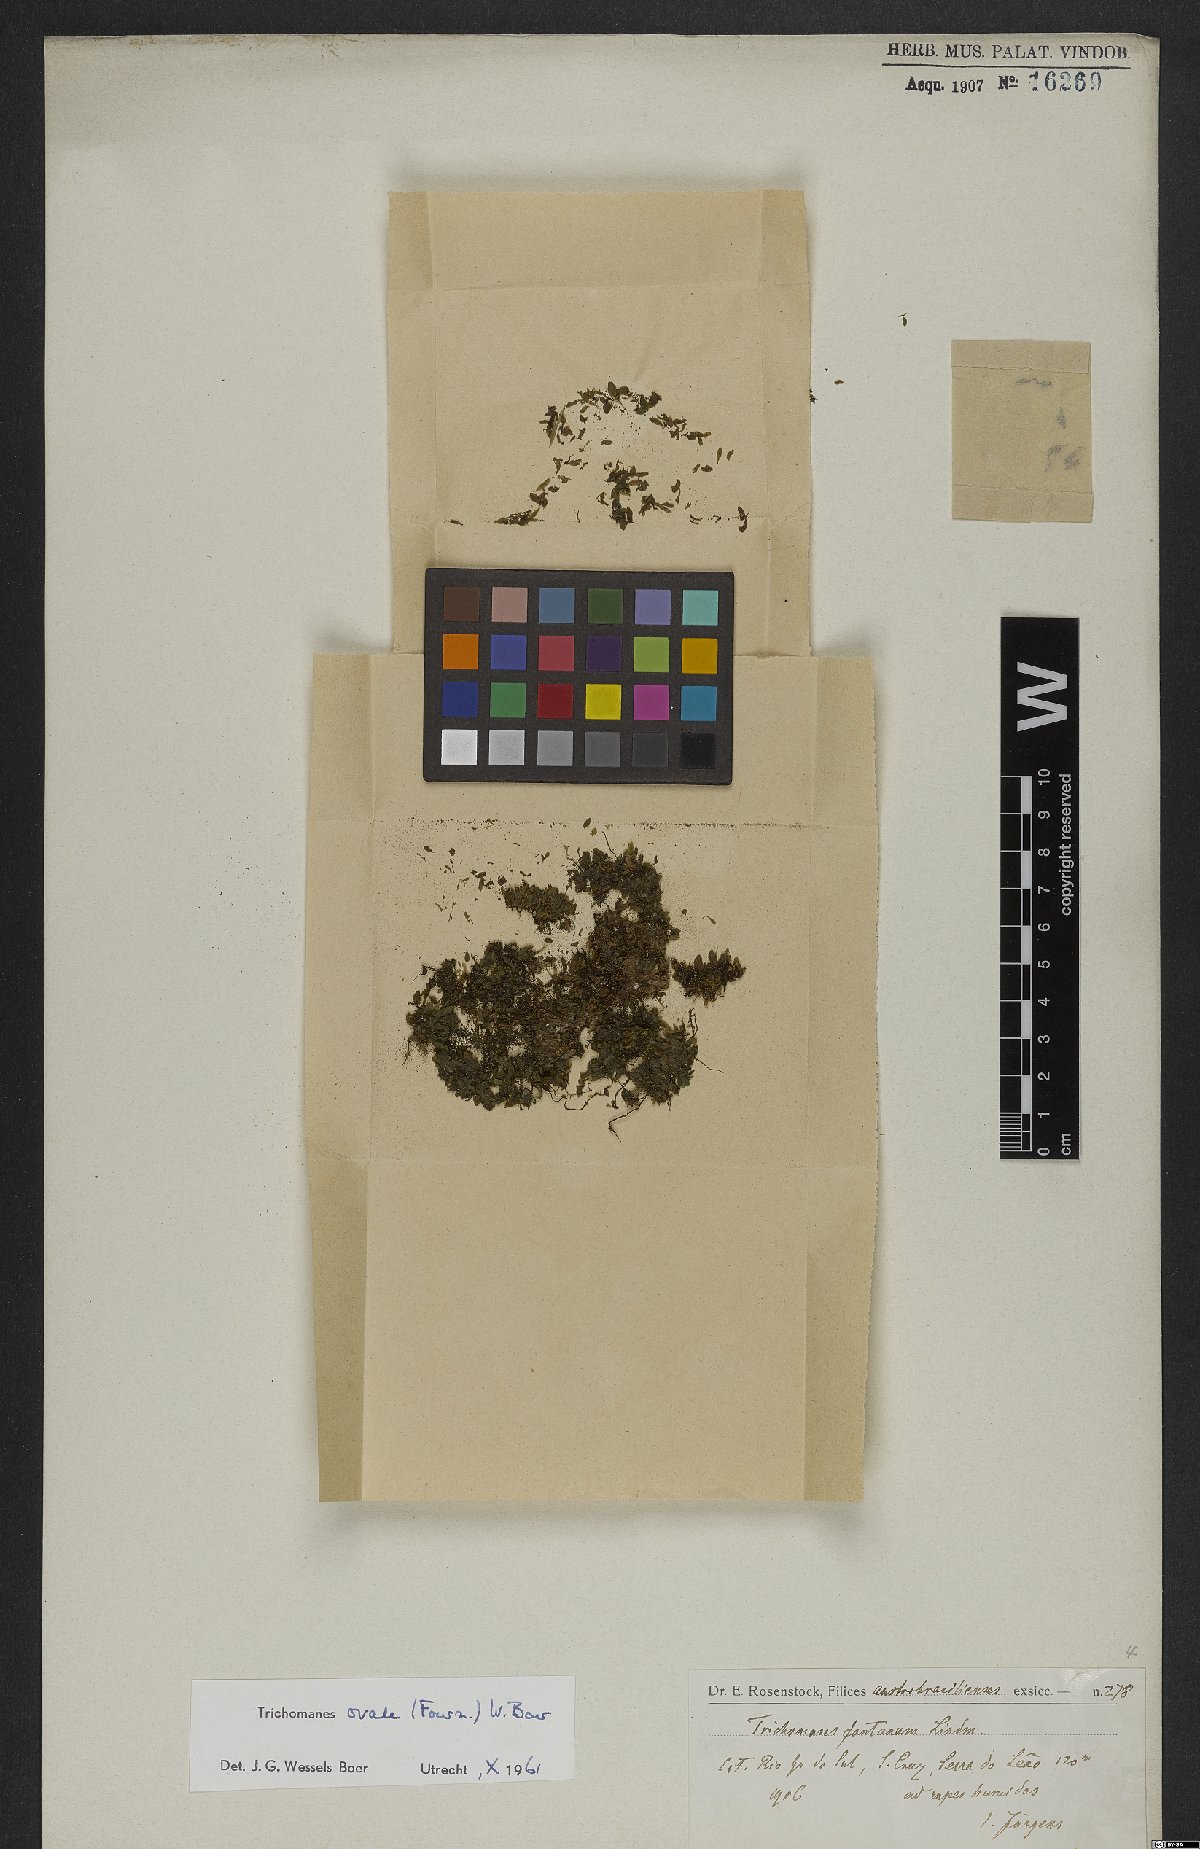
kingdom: Plantae
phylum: Tracheophyta
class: Polypodiopsida
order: Hymenophyllales
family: Hymenophyllaceae
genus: Didymoglossum
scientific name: Didymoglossum ovale
